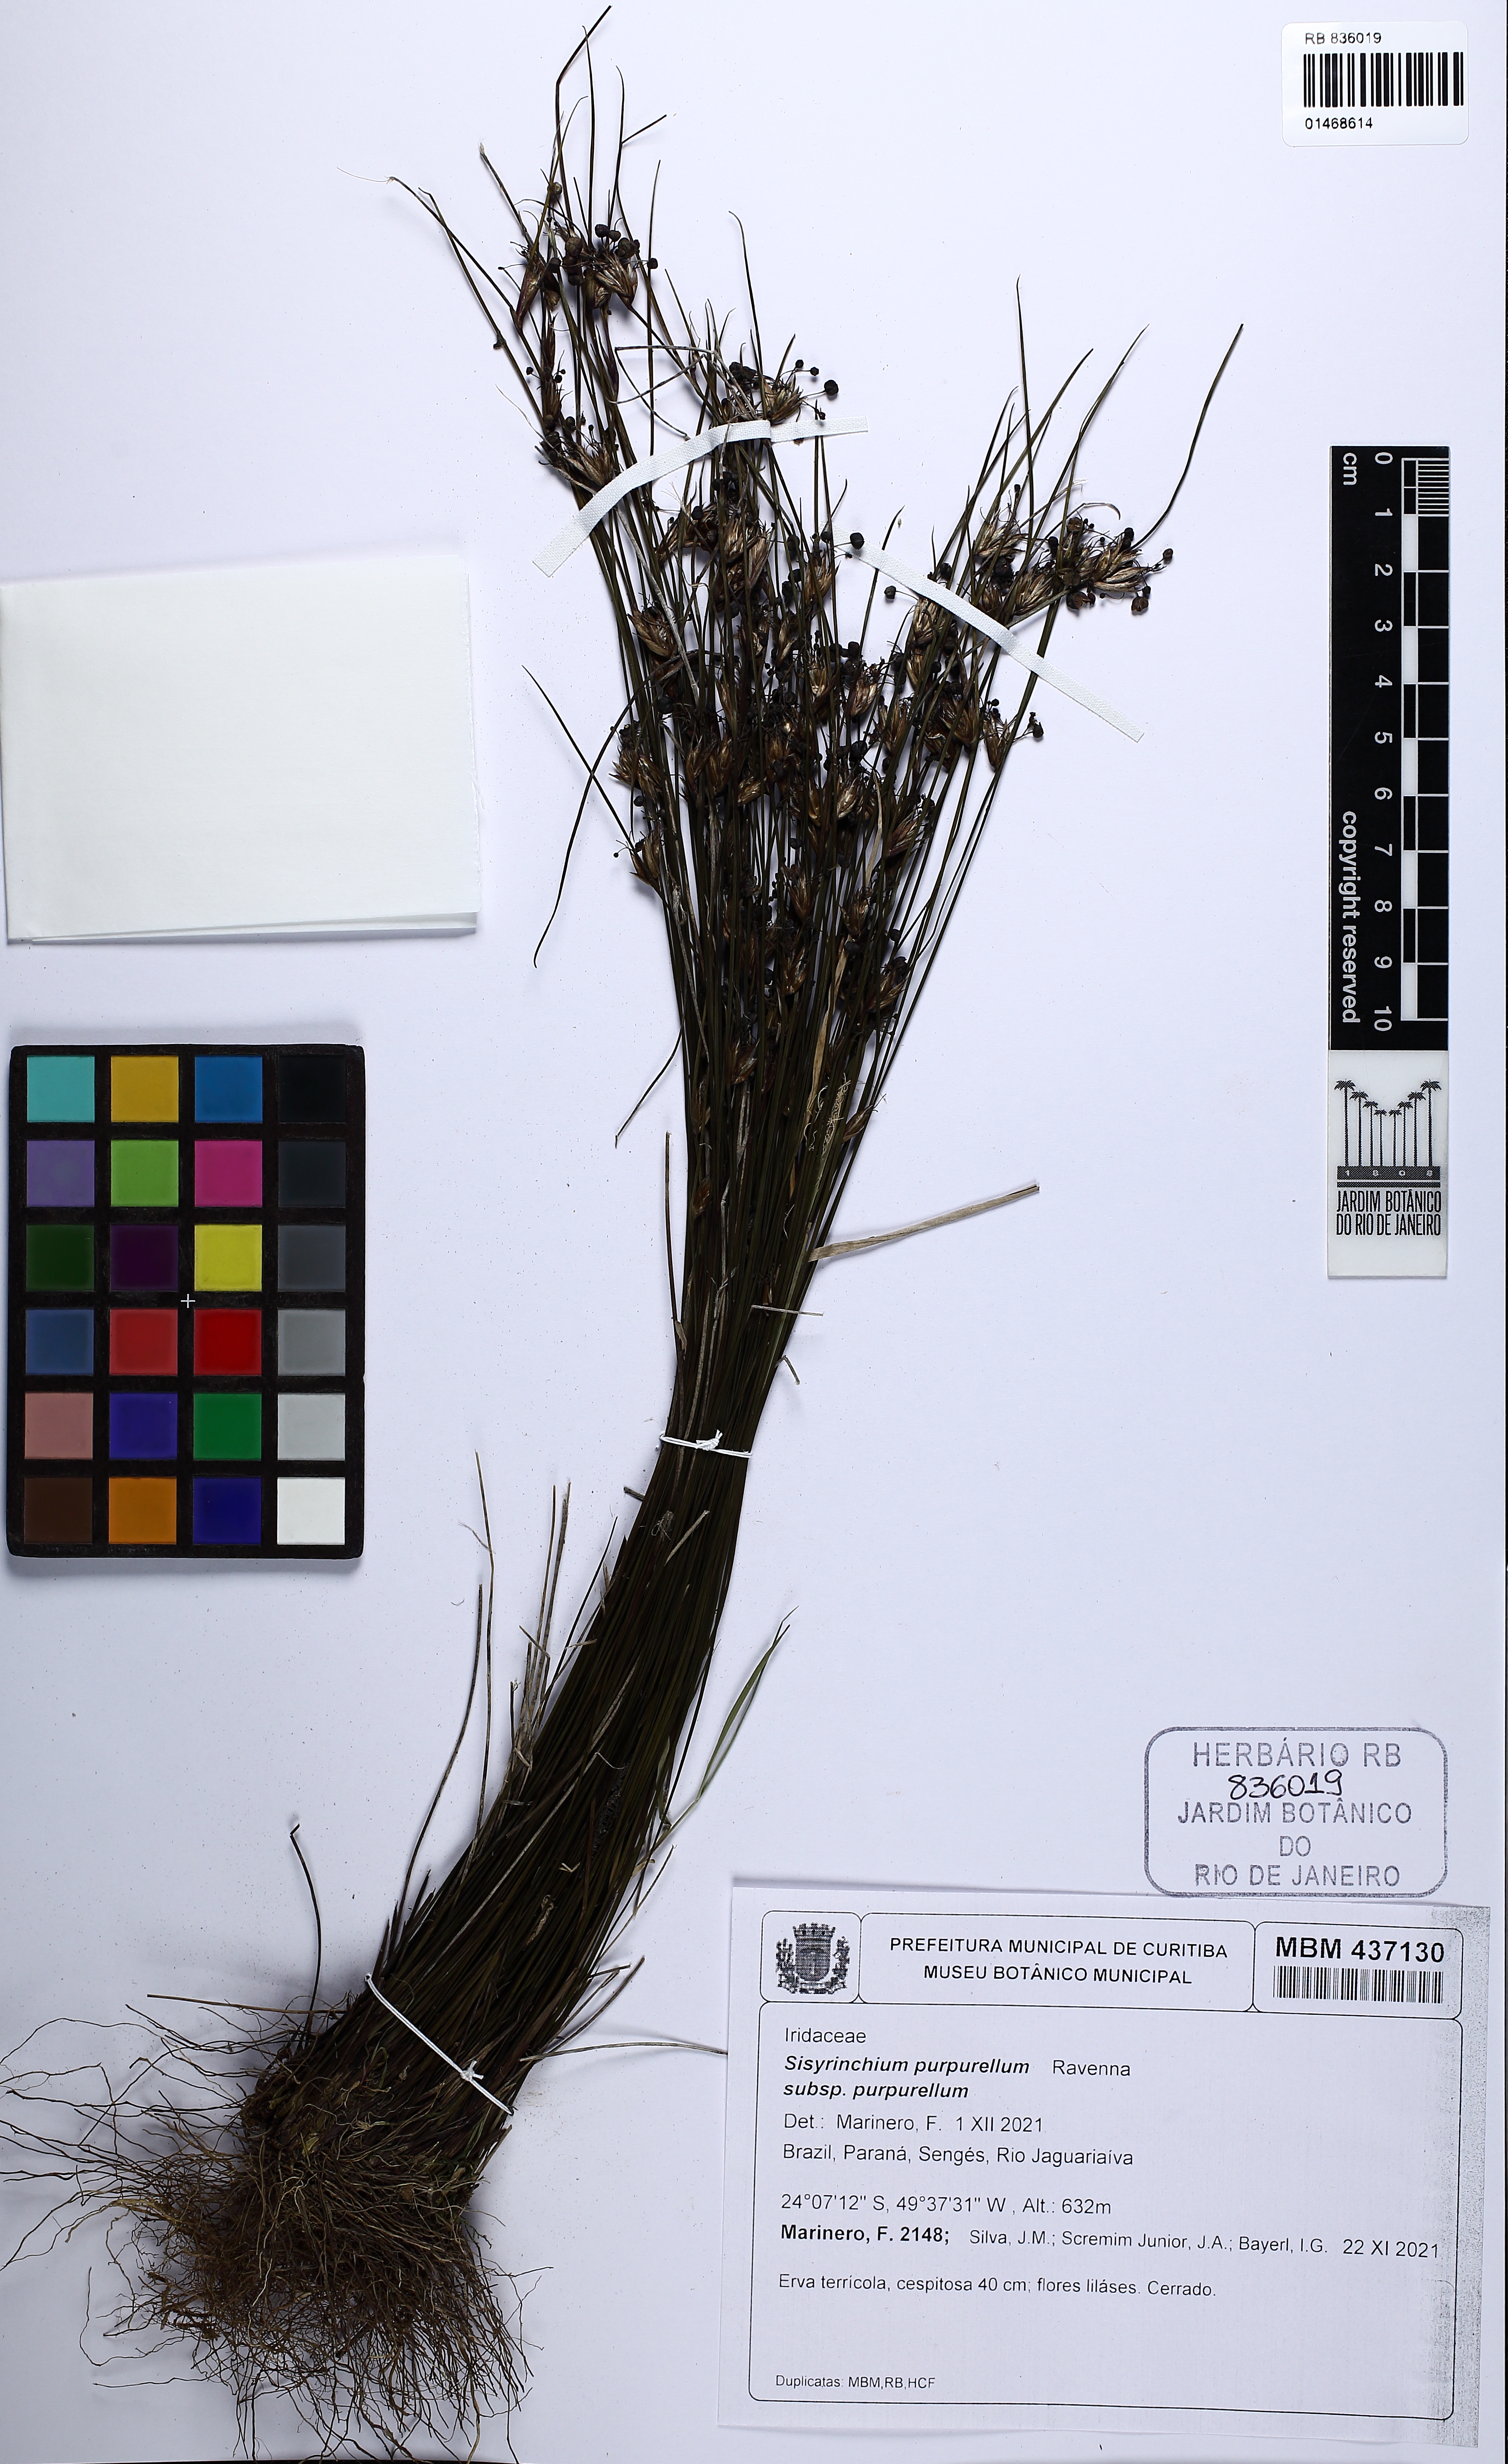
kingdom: Plantae
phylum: Tracheophyta
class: Liliopsida
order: Asparagales
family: Iridaceae
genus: Sisyrinchium
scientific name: Sisyrinchium trichospathum
